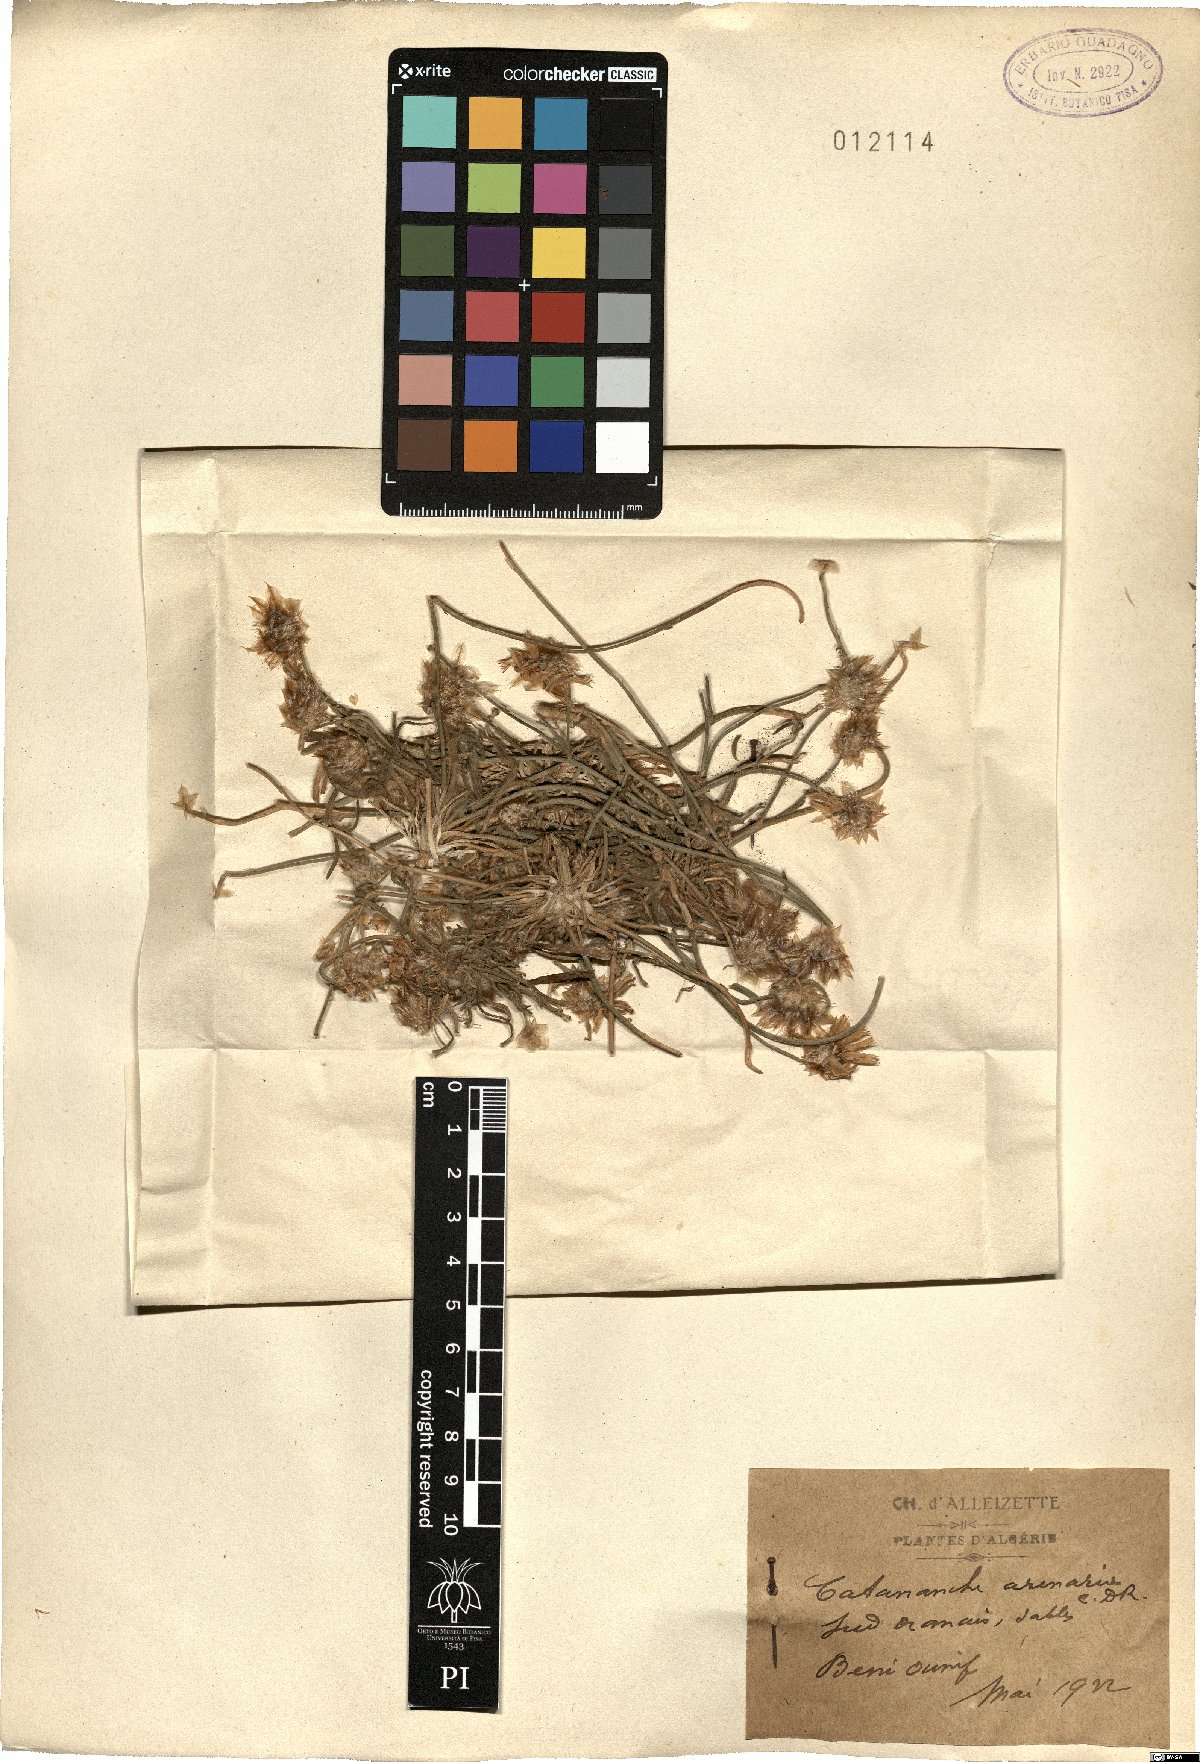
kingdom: Plantae
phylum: Tracheophyta
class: Magnoliopsida
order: Asterales
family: Asteraceae
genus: Catananche
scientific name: Catananche arenaria
